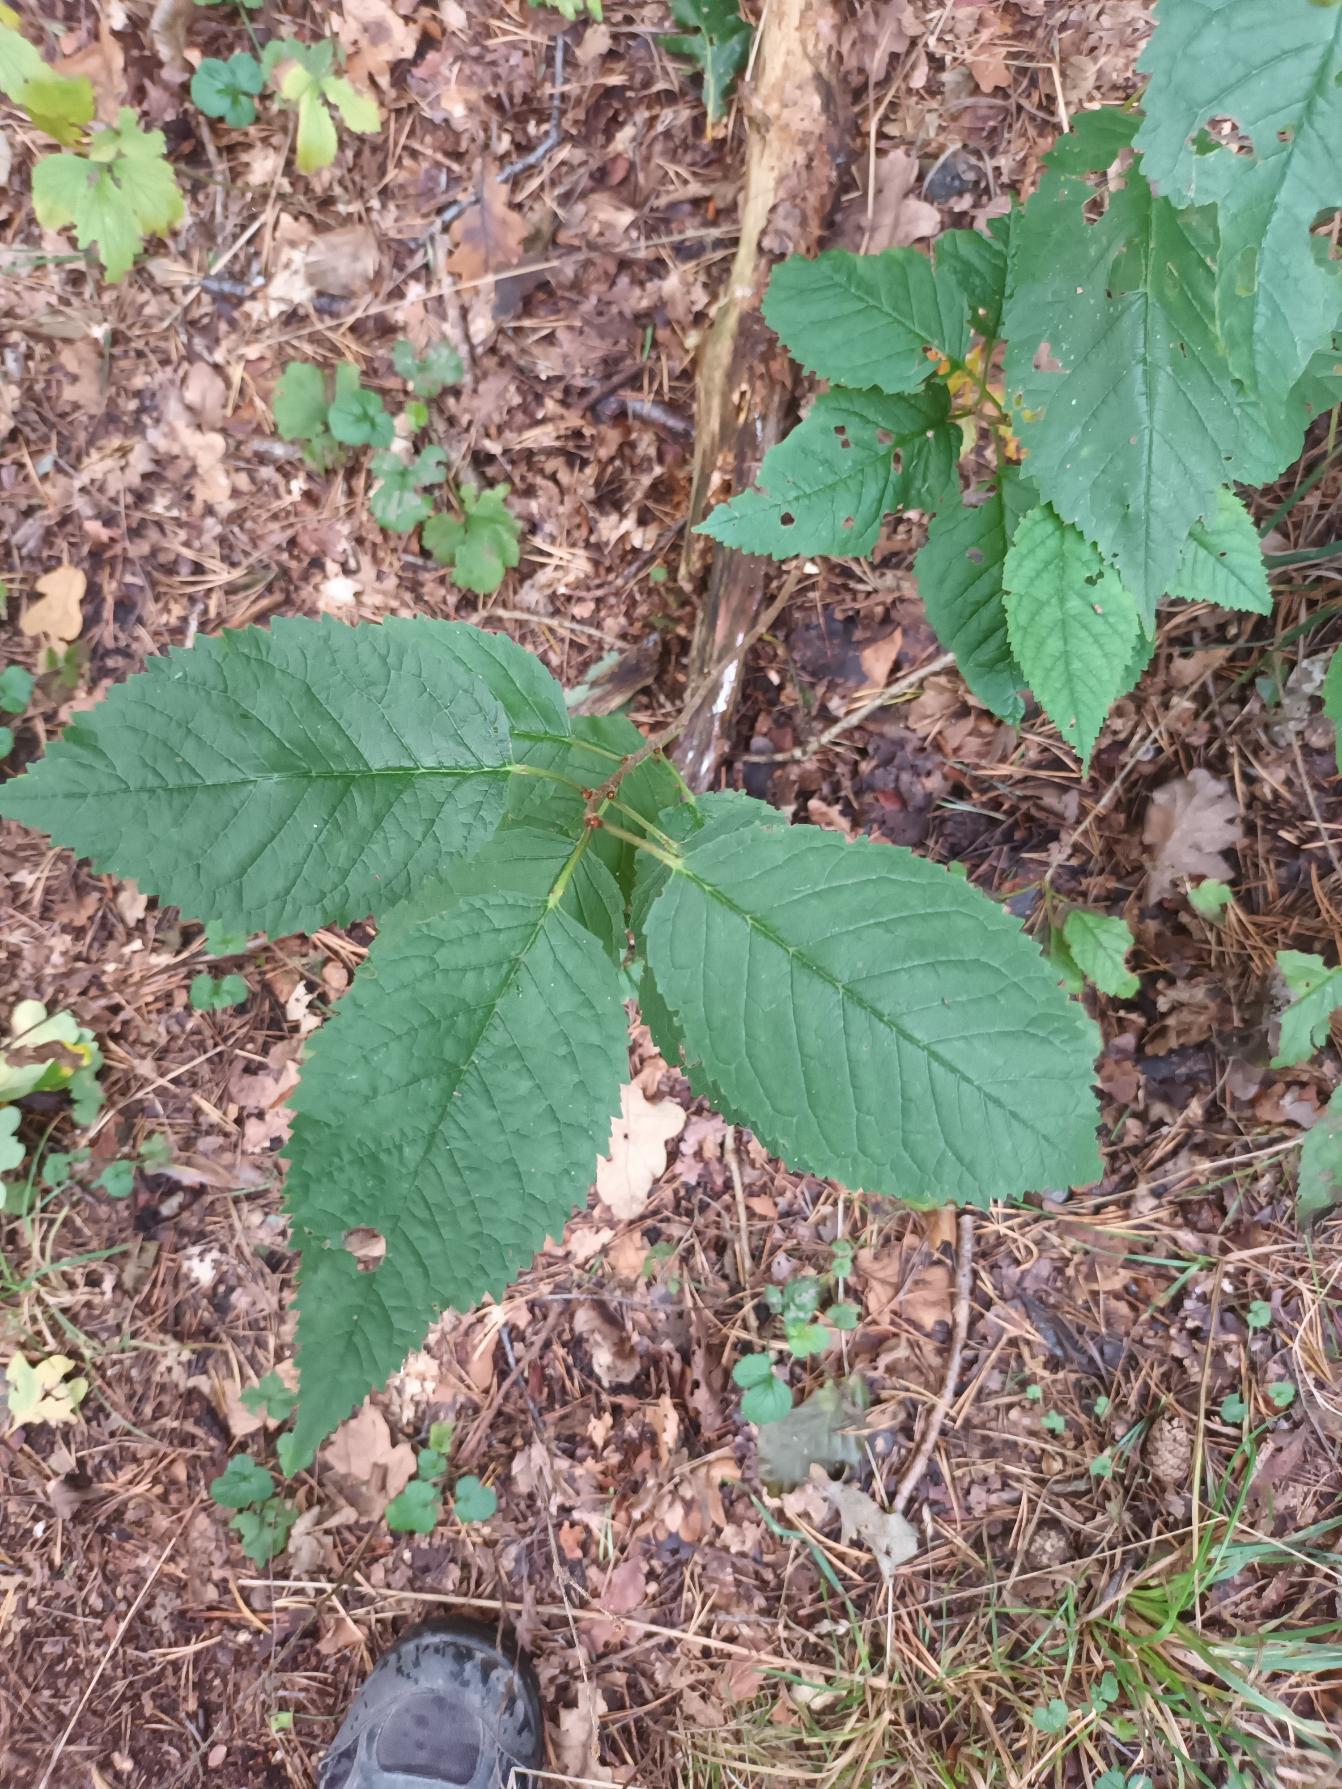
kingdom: Plantae
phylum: Tracheophyta
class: Magnoliopsida
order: Rosales
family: Rosaceae
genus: Prunus
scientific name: Prunus avium
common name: Fugle-kirsebær
